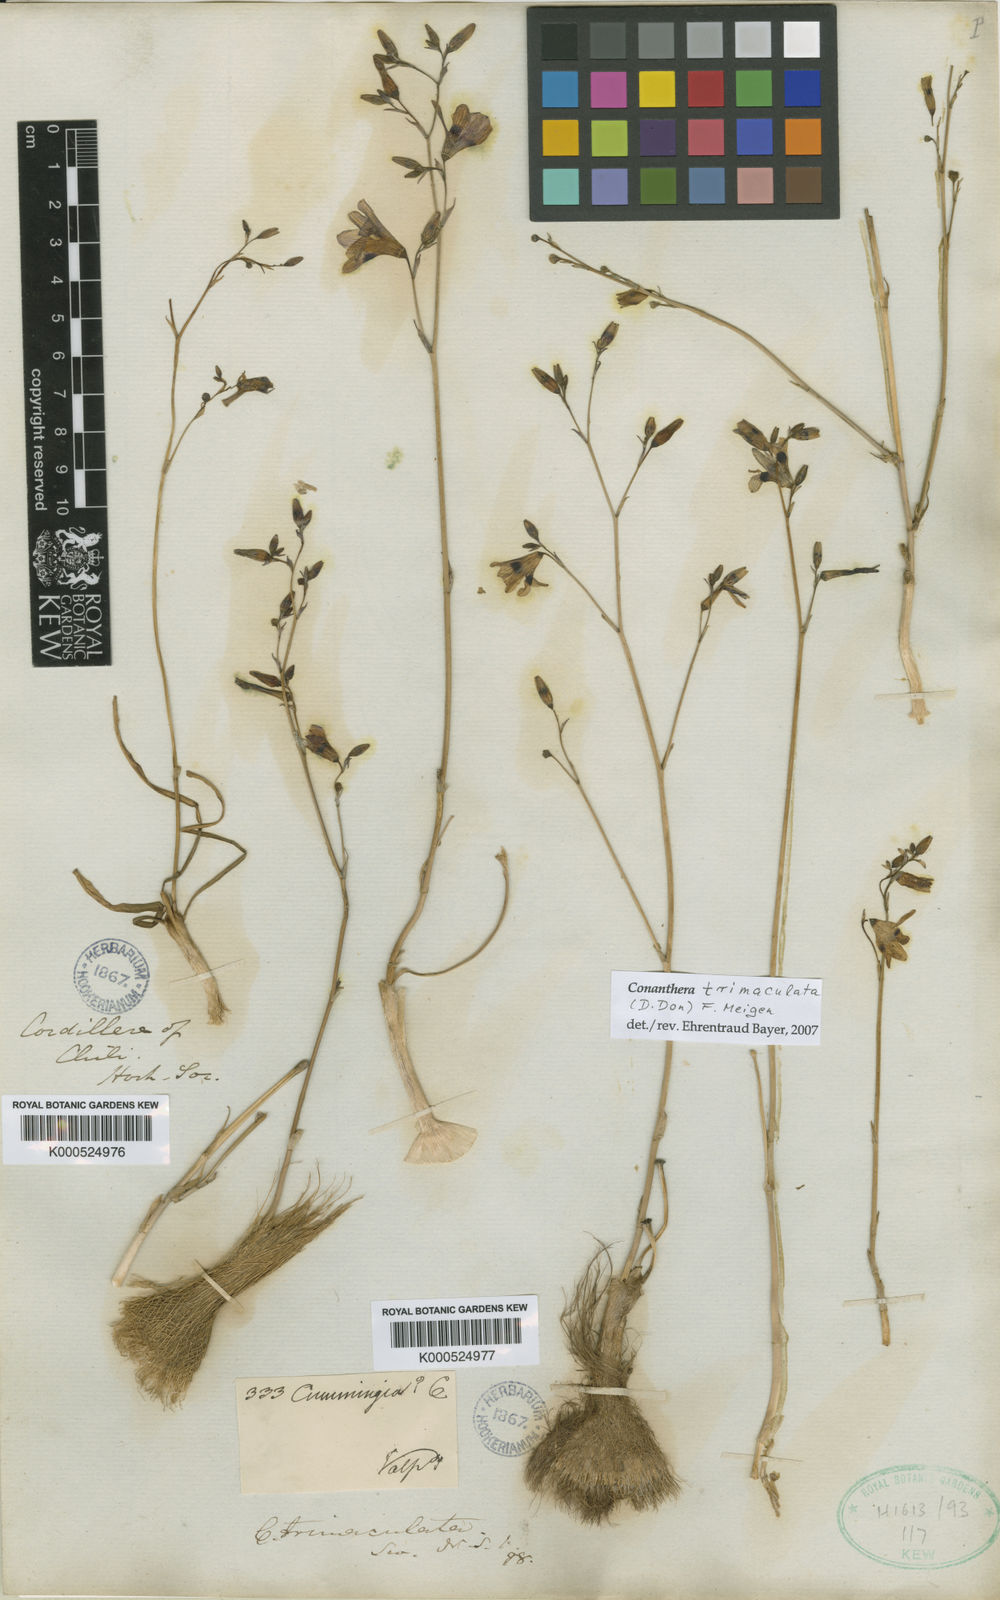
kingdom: Plantae
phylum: Tracheophyta
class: Liliopsida
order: Asparagales
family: Tecophilaeaceae
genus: Conanthera
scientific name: Conanthera trimaculata
